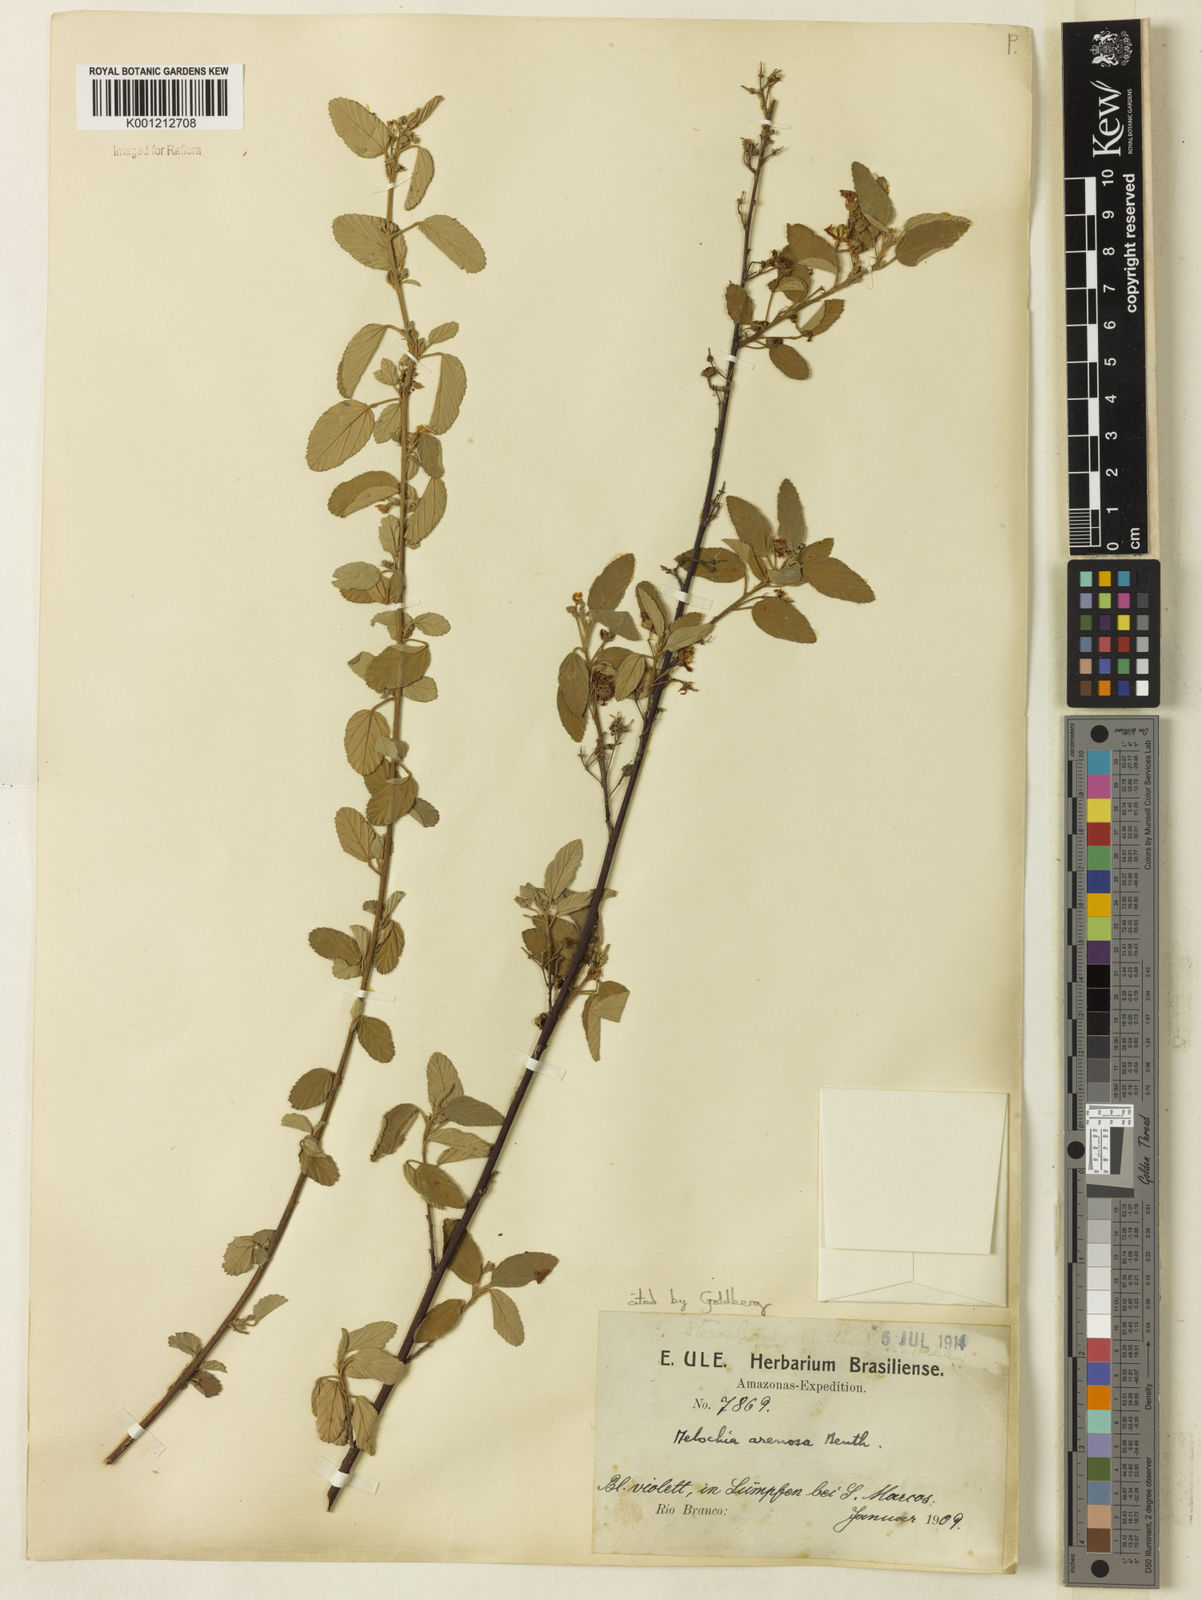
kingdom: Plantae
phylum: Tracheophyta
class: Magnoliopsida
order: Malvales
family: Malvaceae
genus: Melochia
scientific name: Melochia arenosa
